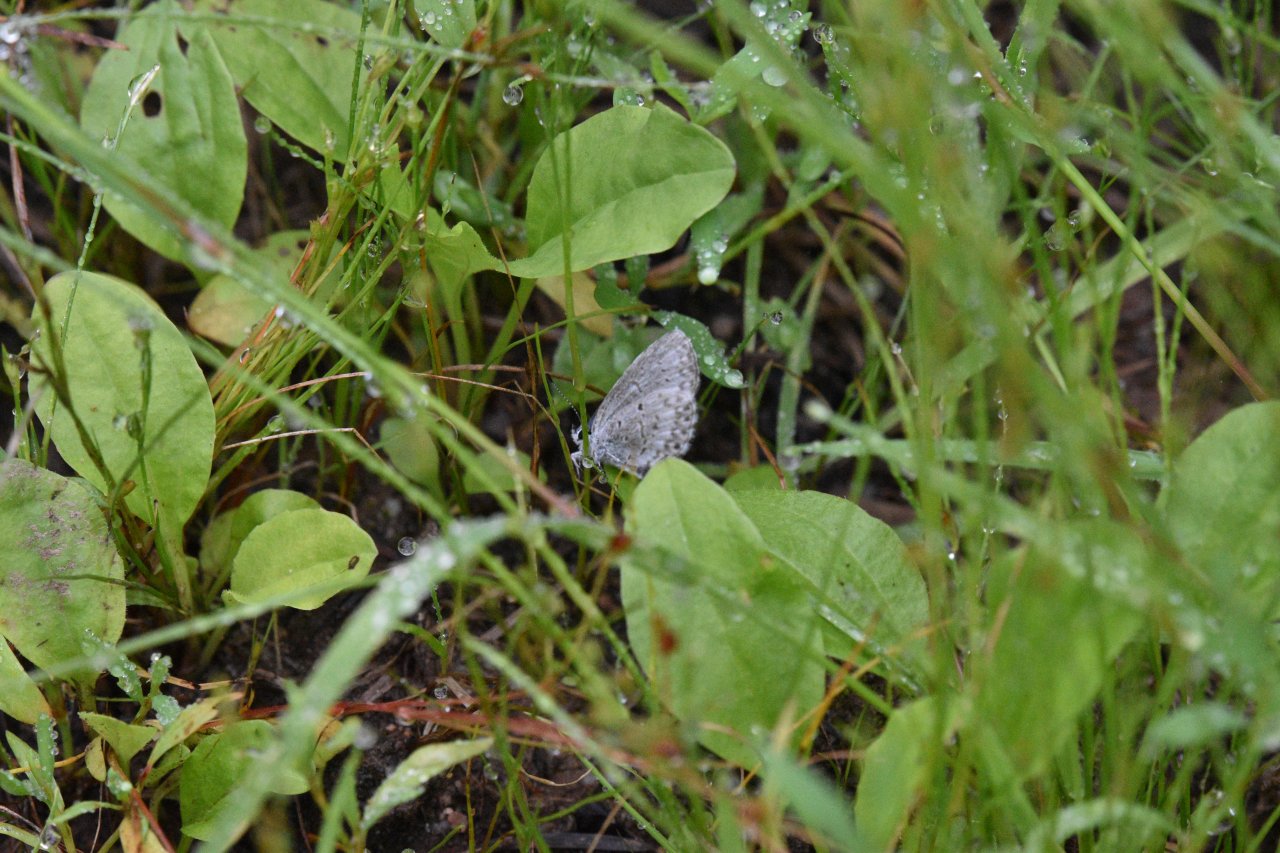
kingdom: Animalia
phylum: Arthropoda
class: Insecta
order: Lepidoptera
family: Lycaenidae
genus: Celastrina
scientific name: Celastrina lucia
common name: Northern Spring Azure
